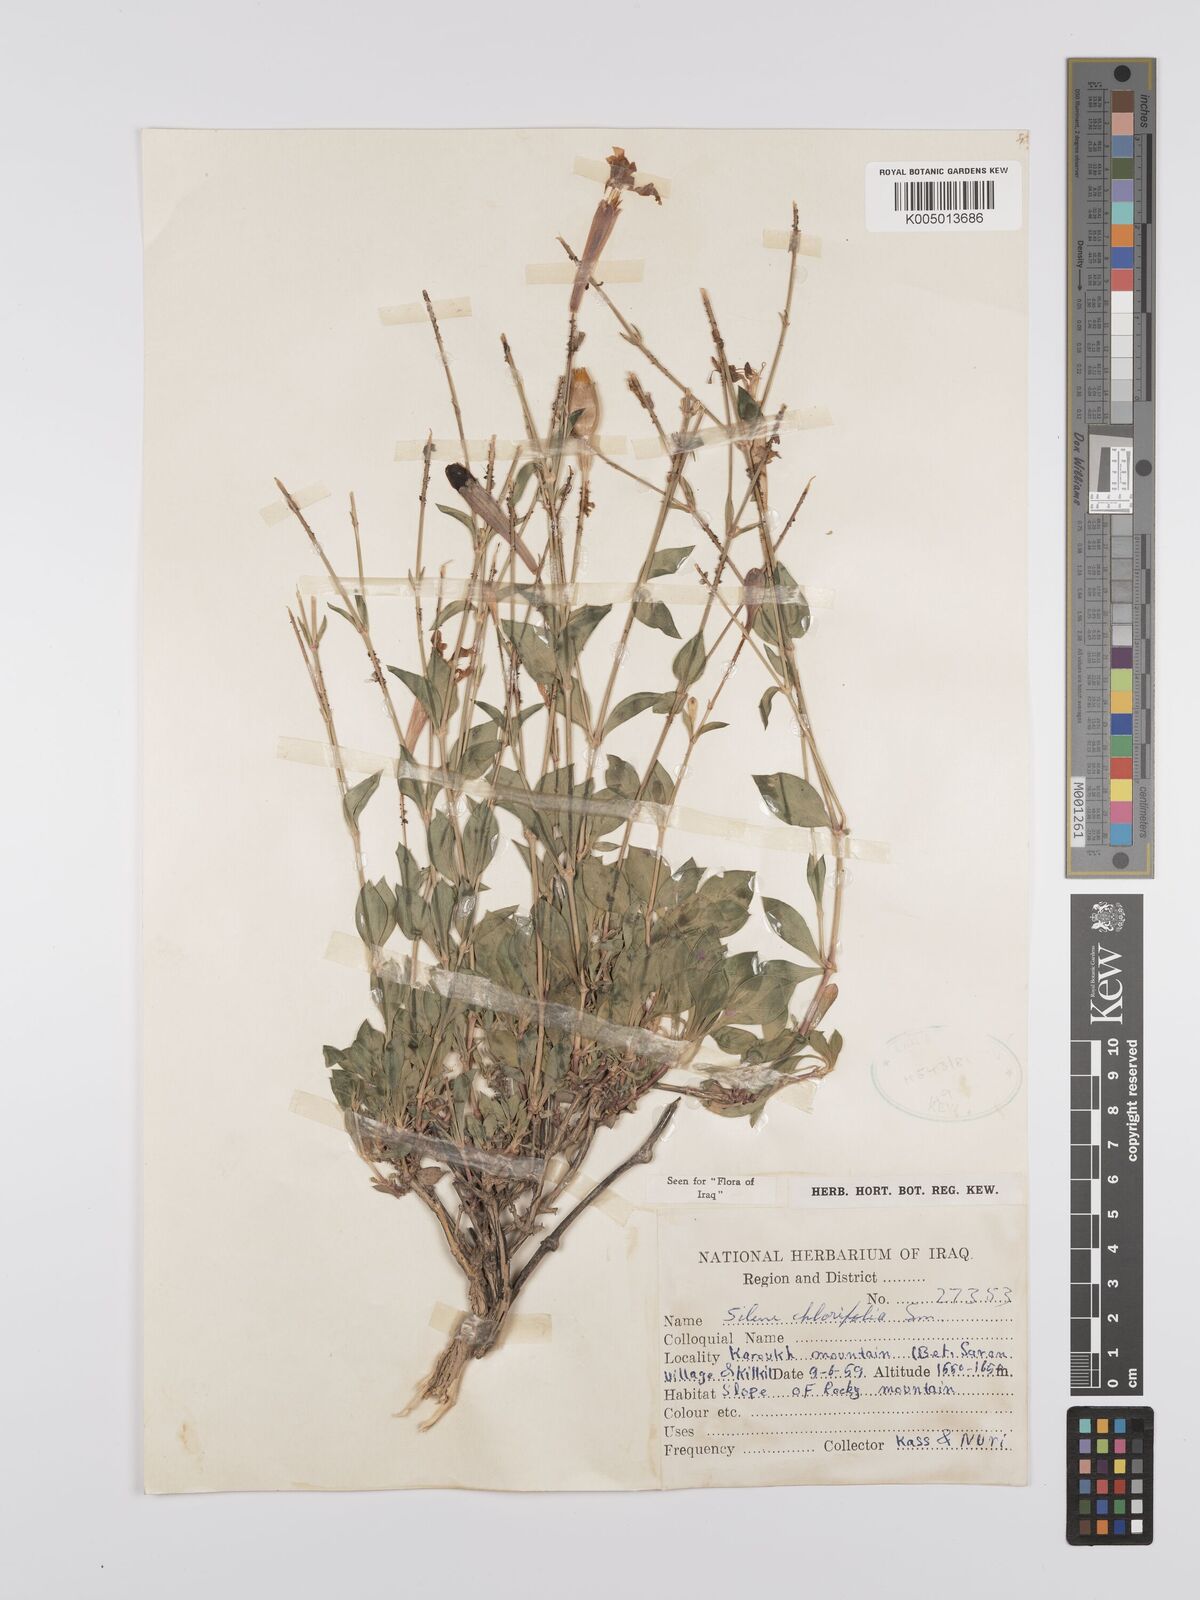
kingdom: Plantae
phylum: Tracheophyta
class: Magnoliopsida
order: Caryophyllales
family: Caryophyllaceae
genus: Silene
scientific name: Silene chlorifolia
